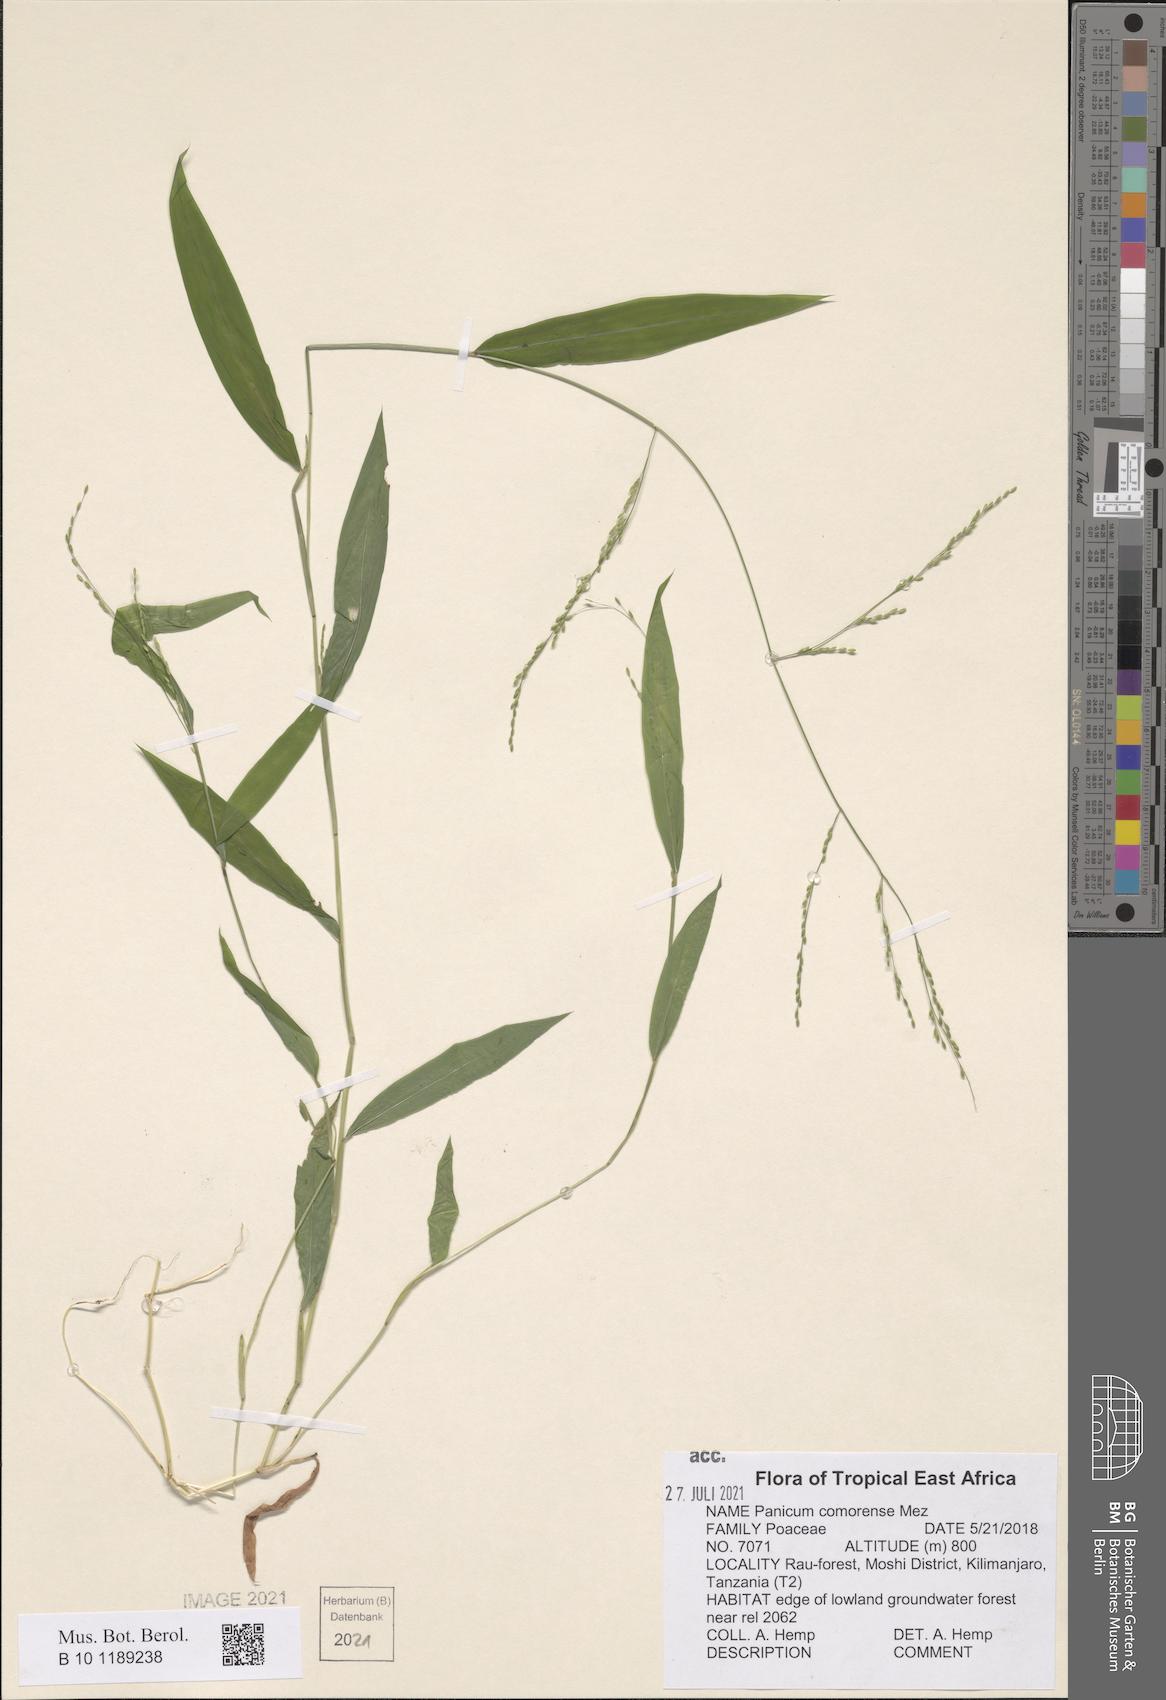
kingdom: Plantae
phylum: Tracheophyta
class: Liliopsida
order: Poales
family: Poaceae
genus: Panicum
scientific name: Panicum comorense
